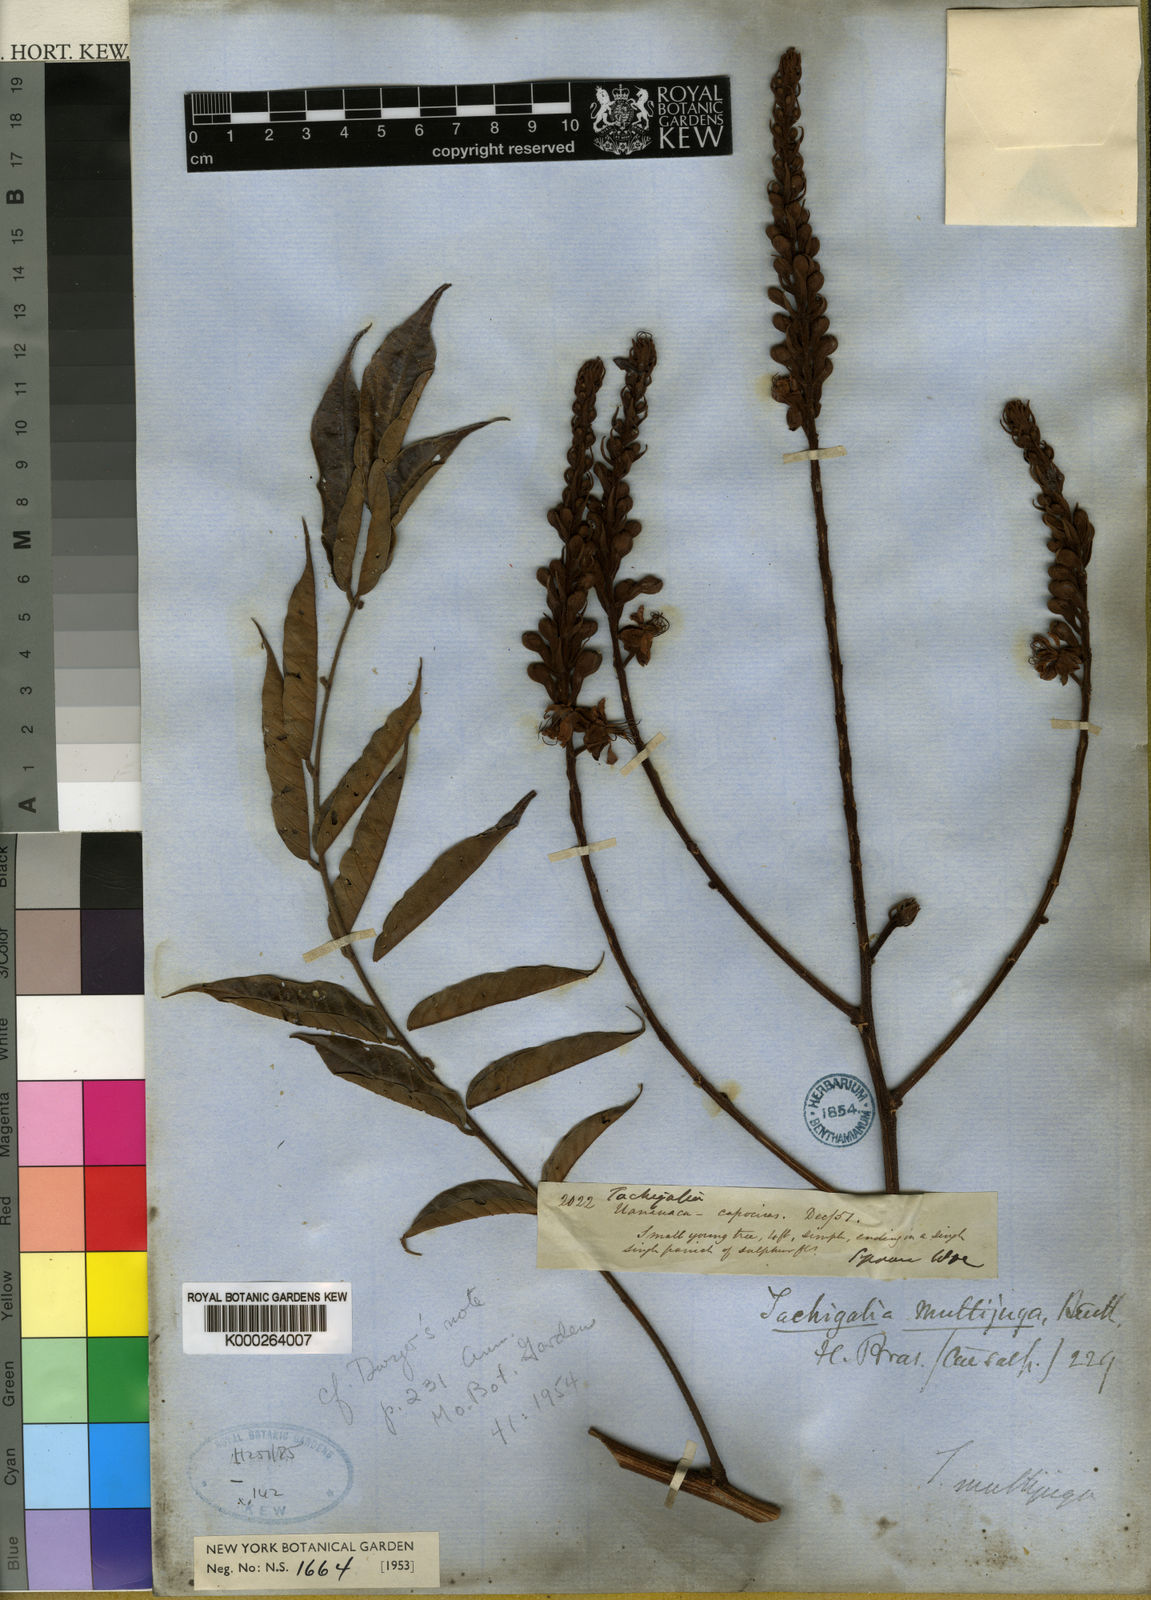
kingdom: Plantae
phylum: Tracheophyta
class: Magnoliopsida
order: Fabales
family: Fabaceae
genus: Tachigali
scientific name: Tachigali paratyensis
